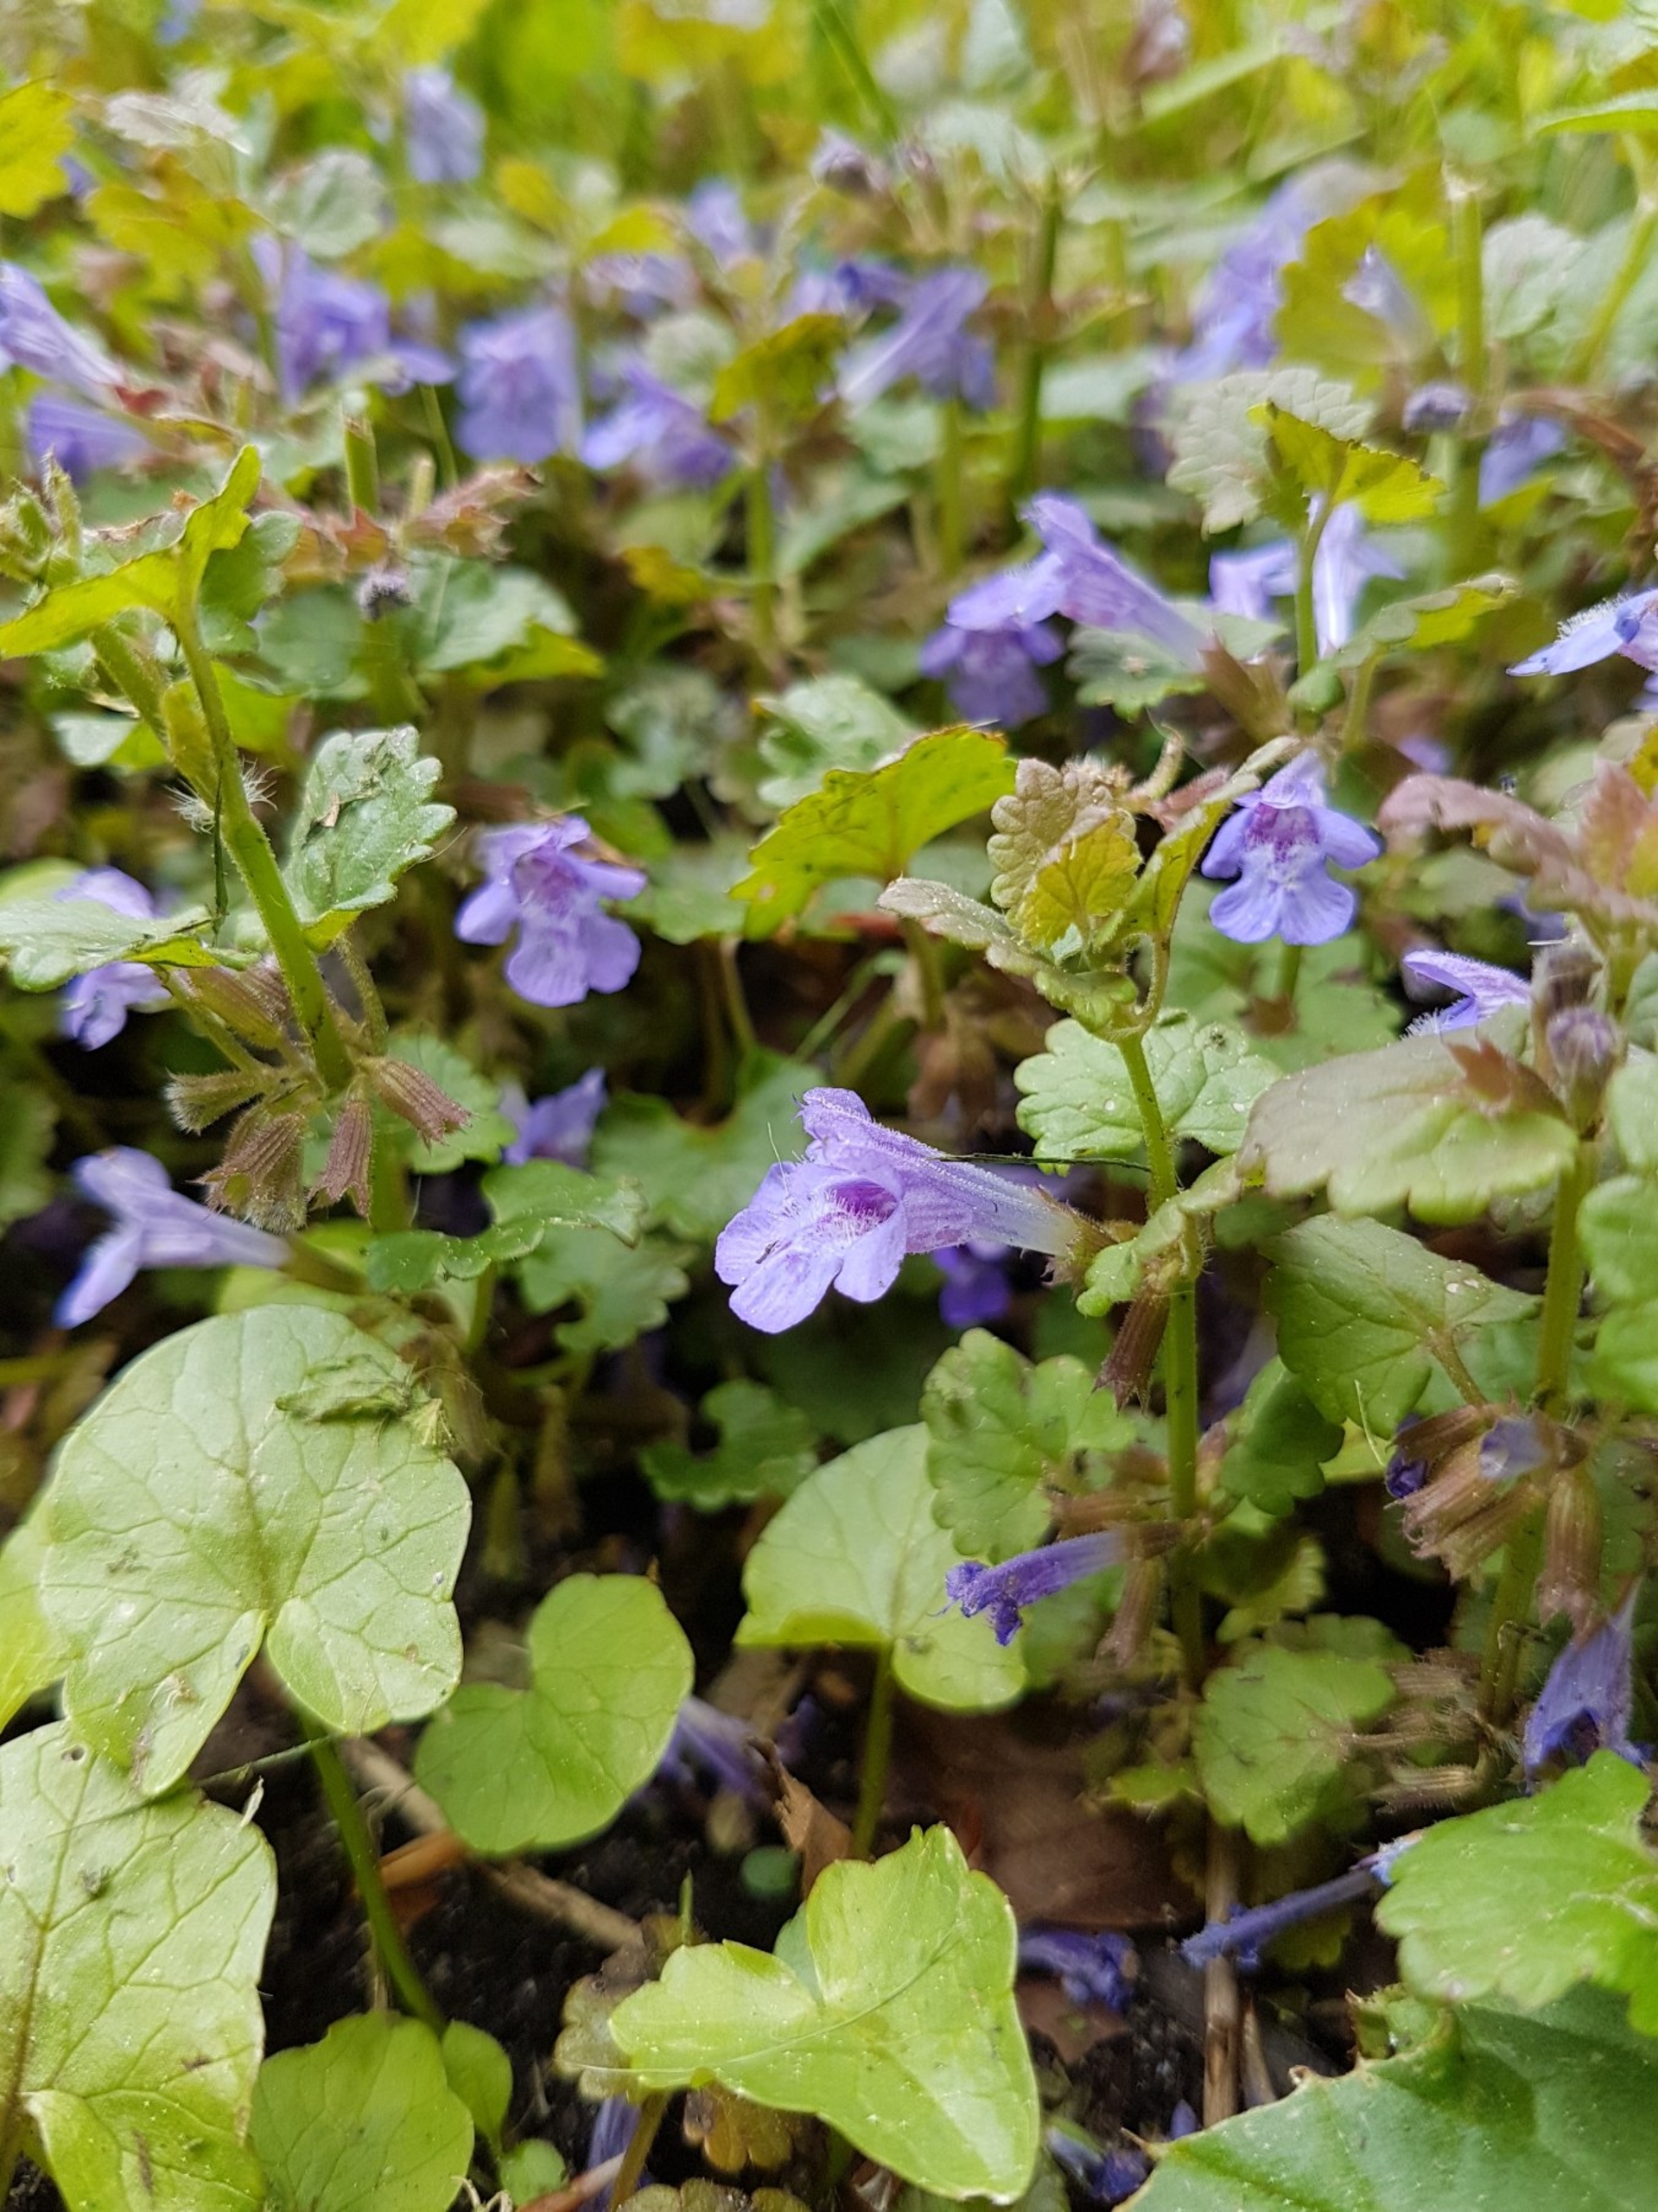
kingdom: Plantae
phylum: Tracheophyta
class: Magnoliopsida
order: Lamiales
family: Lamiaceae
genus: Glechoma
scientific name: Glechoma hederacea
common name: Korsknap
